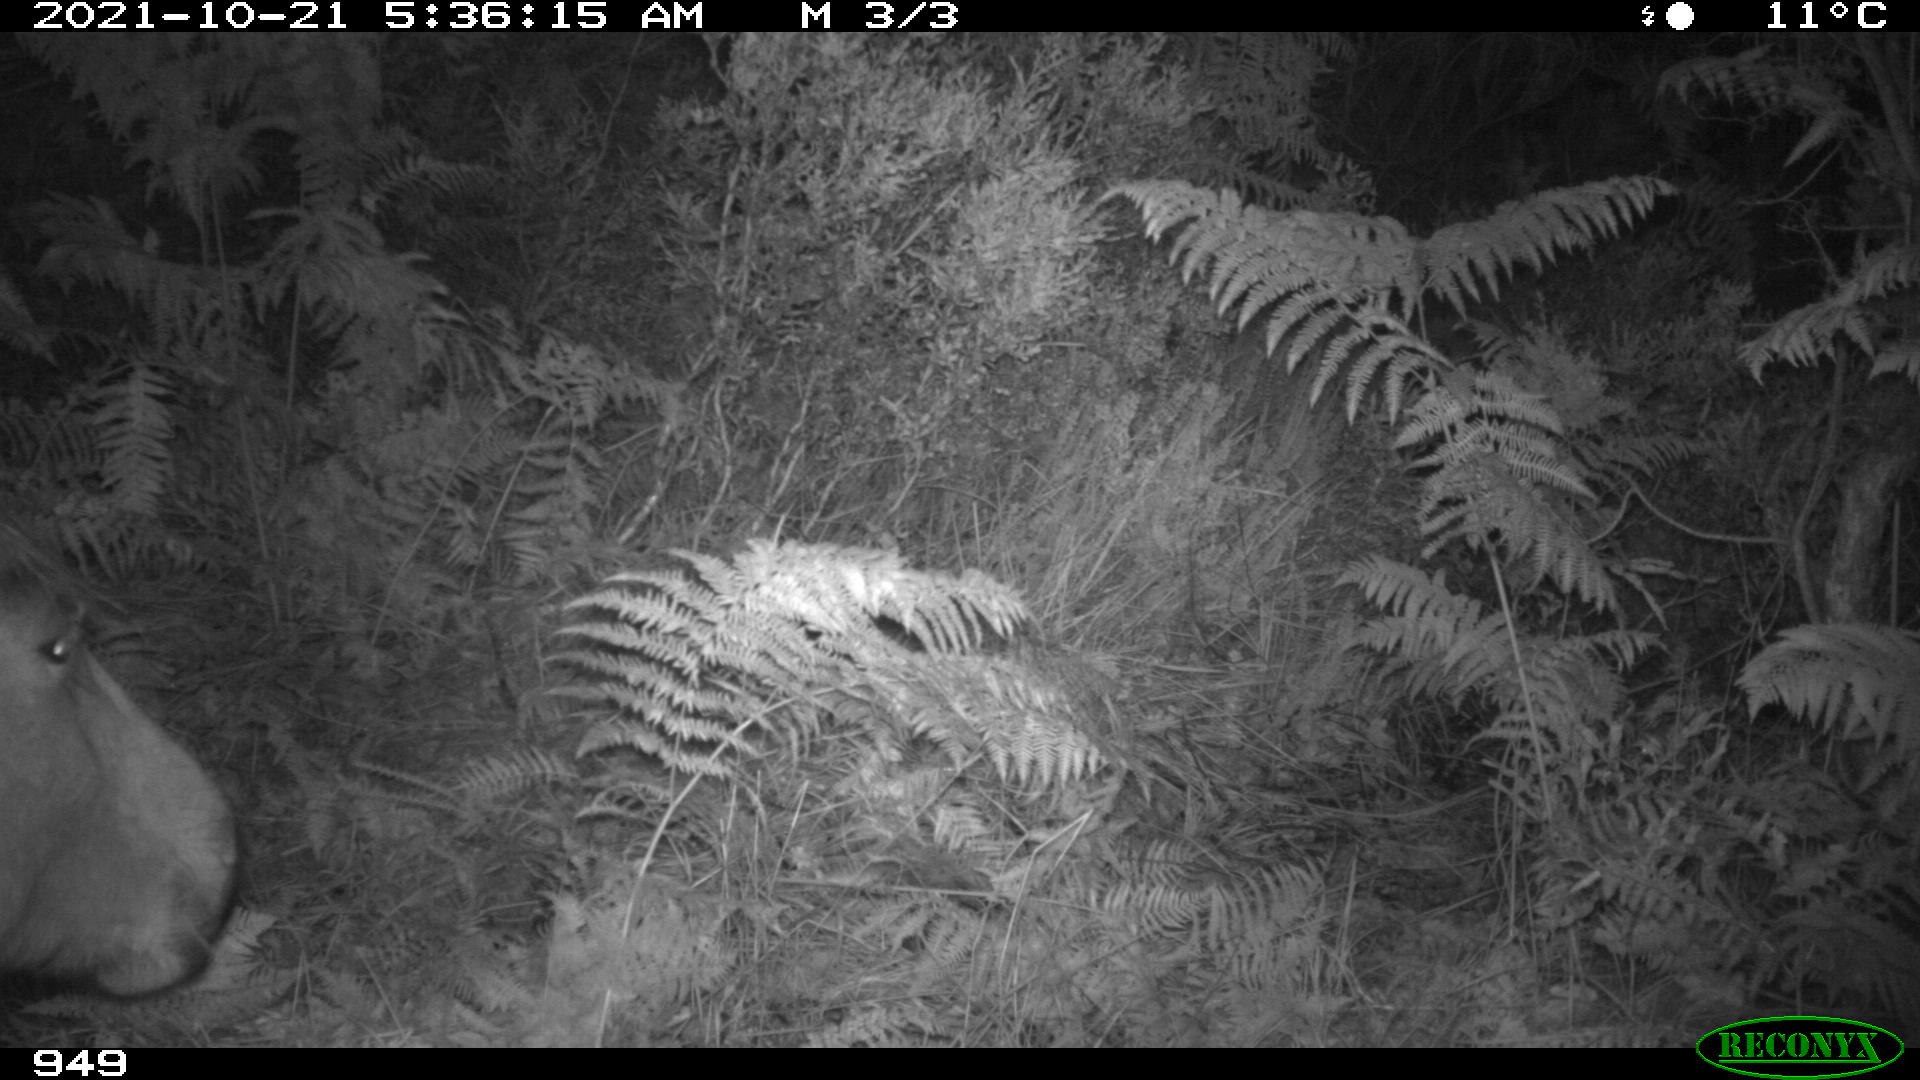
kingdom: Animalia
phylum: Chordata
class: Mammalia
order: Perissodactyla
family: Equidae
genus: Equus
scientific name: Equus caballus
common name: Horse
